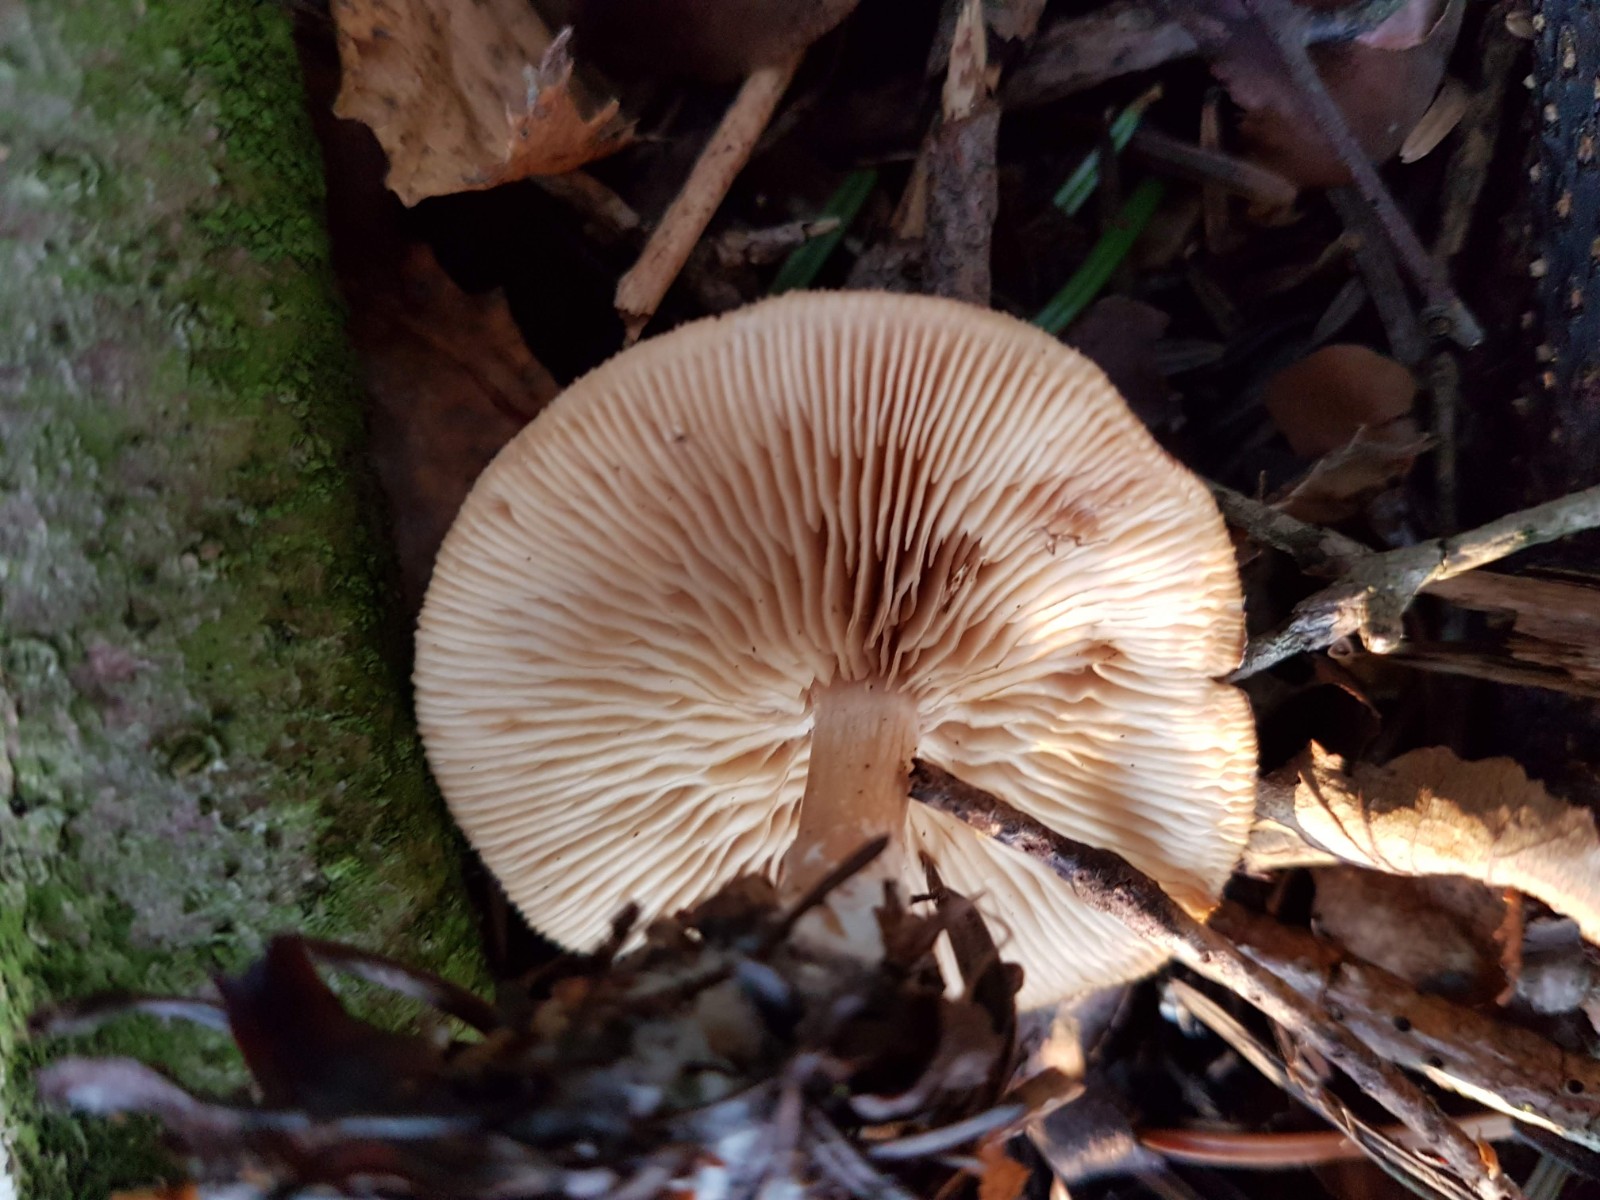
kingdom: Fungi
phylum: Basidiomycota
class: Agaricomycetes
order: Agaricales
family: Tricholomataceae
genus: Clitocybe
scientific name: Clitocybe
